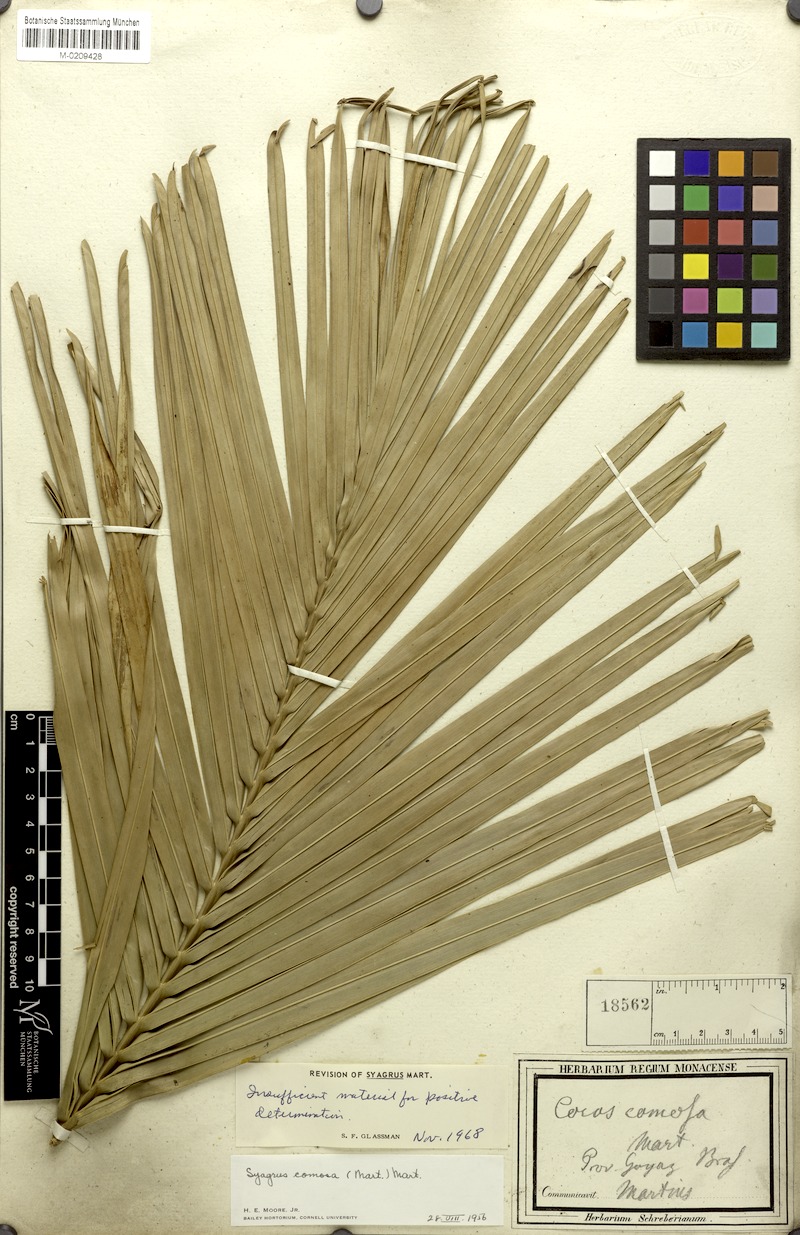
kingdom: Plantae
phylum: Tracheophyta
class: Liliopsida
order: Arecales
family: Arecaceae
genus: Syagrus
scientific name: Syagrus comosa
